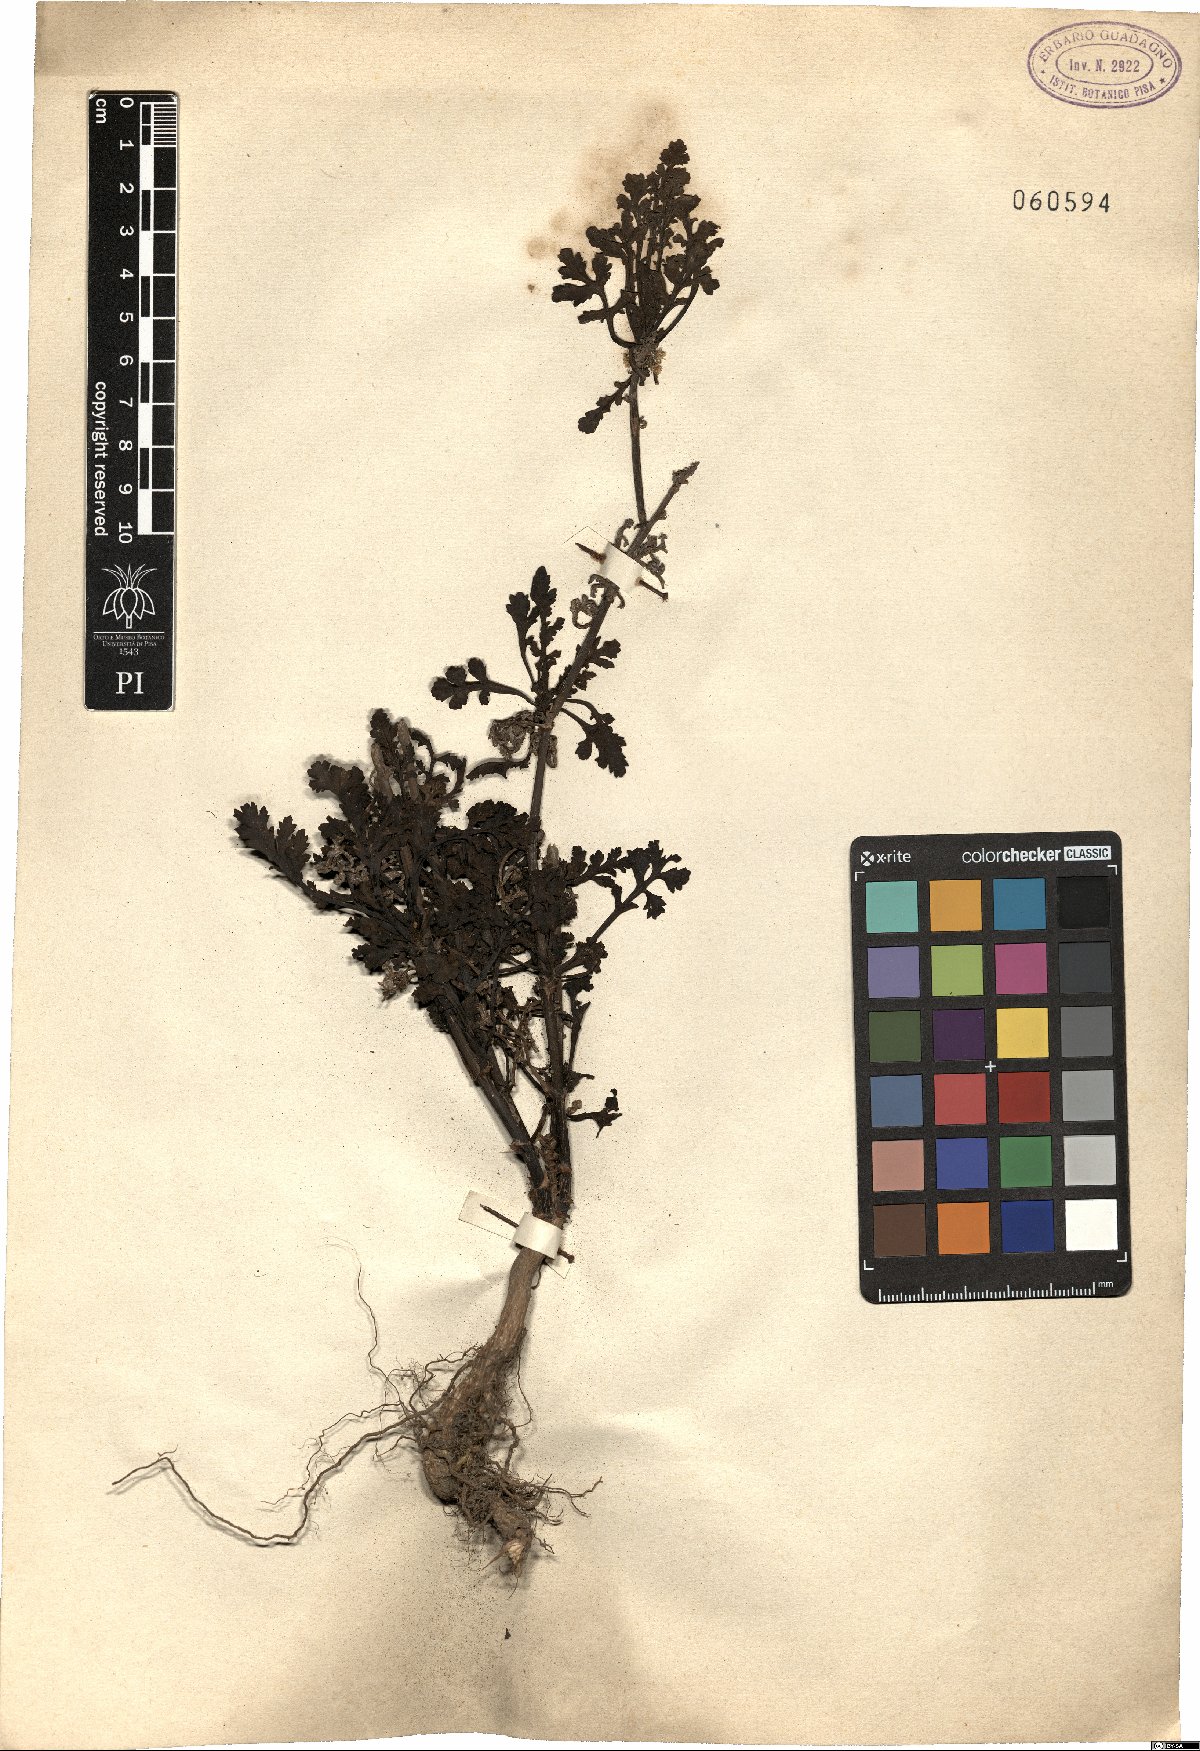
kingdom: Plantae
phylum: Tracheophyta
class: Magnoliopsida
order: Asterales
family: Asteraceae
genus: Tanacetum
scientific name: Tanacetum parthenium
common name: Feverfew
